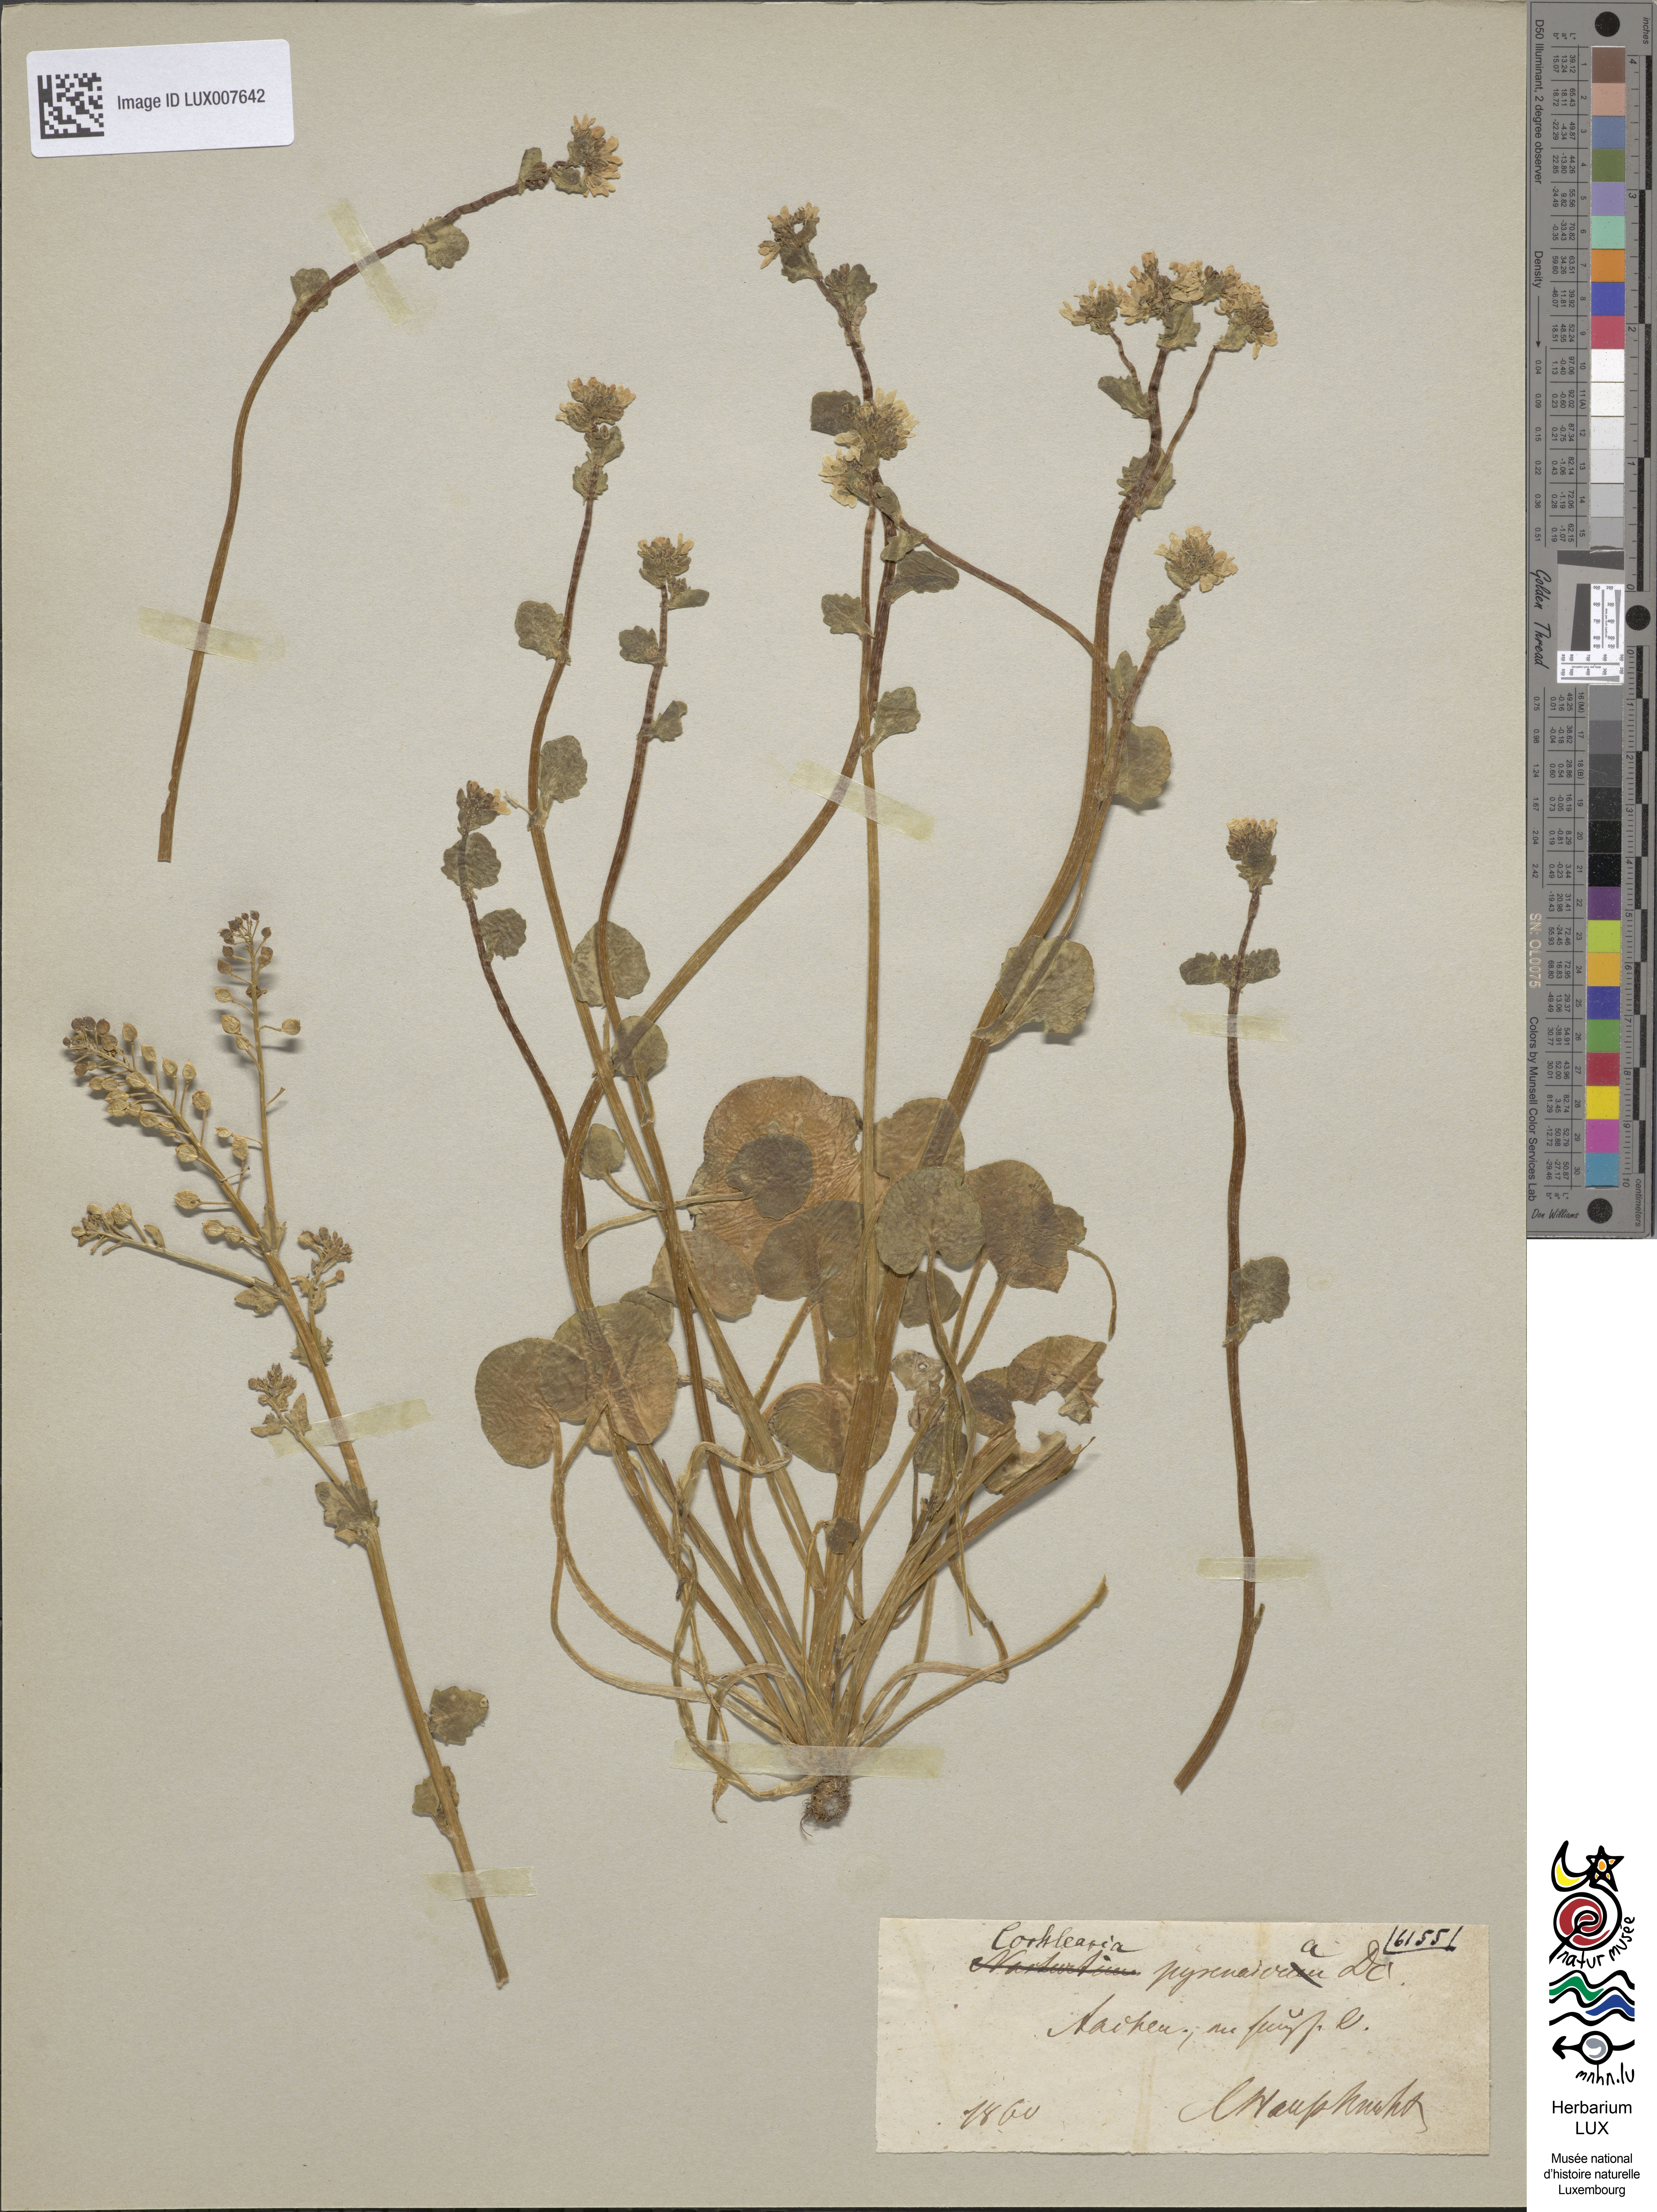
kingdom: Plantae
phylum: Tracheophyta
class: Magnoliopsida
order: Brassicales
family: Brassicaceae
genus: Cochlearia
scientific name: Cochlearia pyrenaica
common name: Upland scurvy-grass
